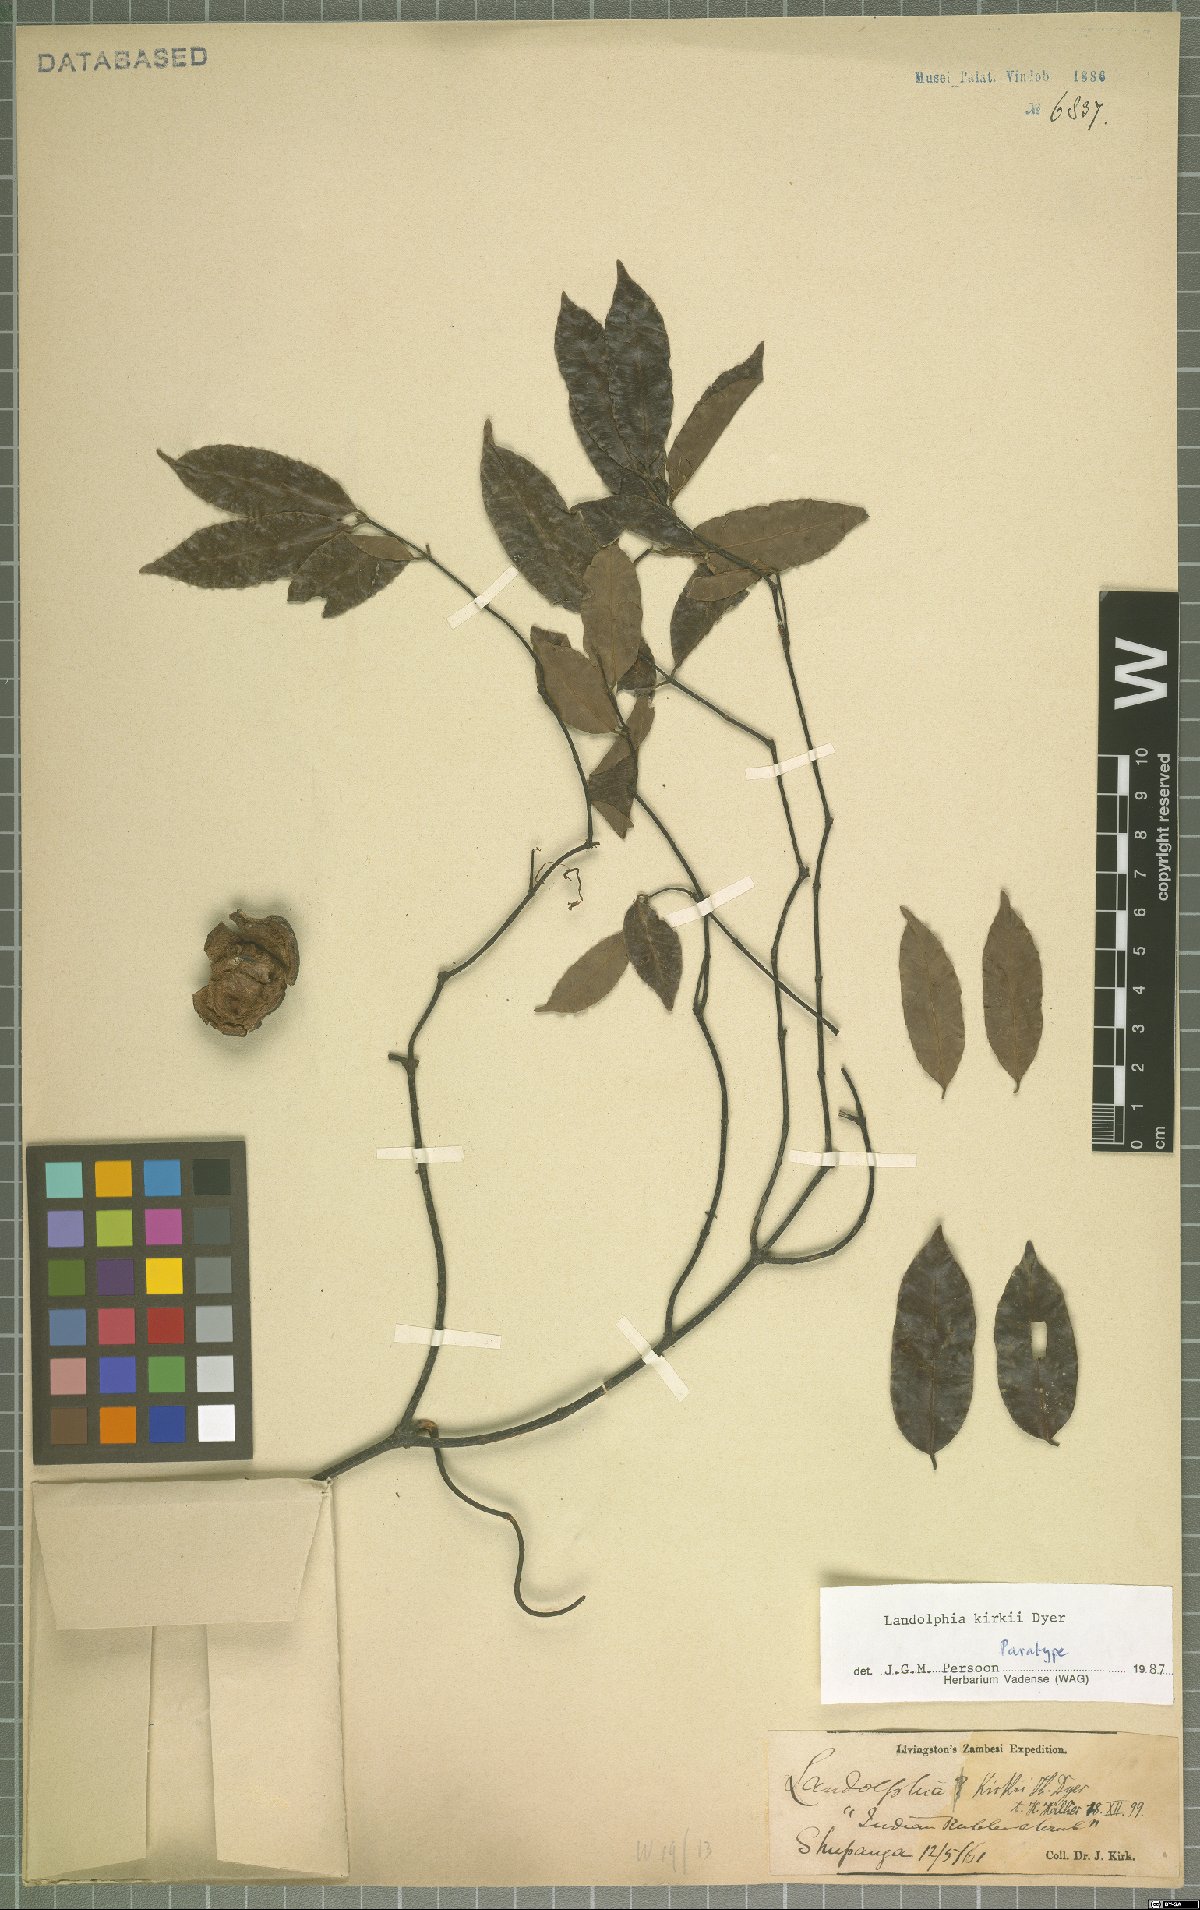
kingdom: Plantae
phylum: Tracheophyta
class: Magnoliopsida
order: Gentianales
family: Apocynaceae
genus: Landolphia
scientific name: Landolphia kirkii
